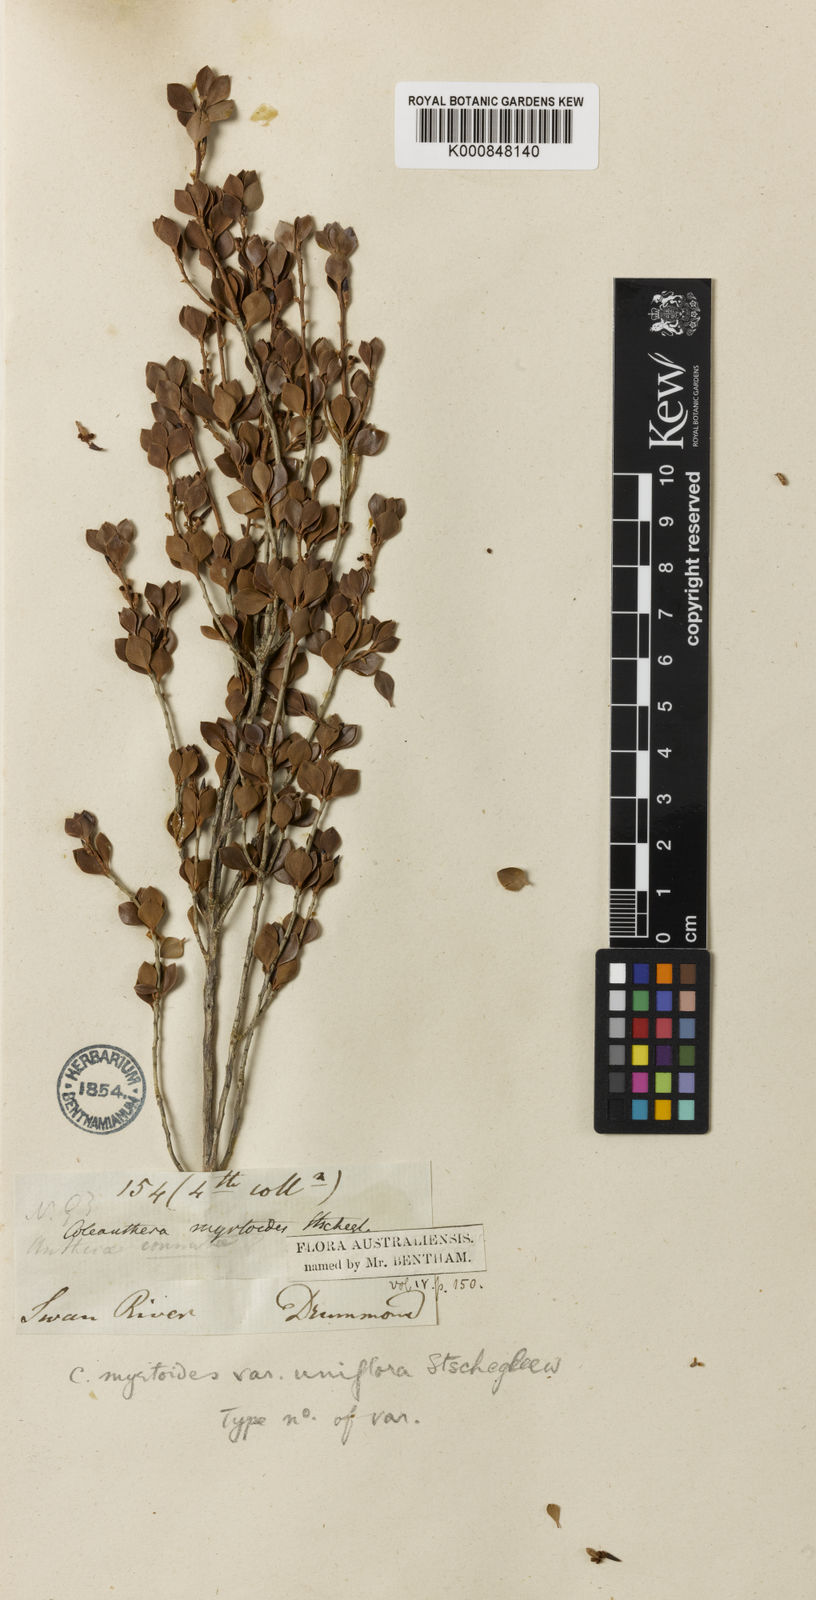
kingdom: Plantae
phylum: Tracheophyta
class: Magnoliopsida
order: Ericales
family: Ericaceae
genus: Styphelia
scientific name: Styphelia coelophylla
